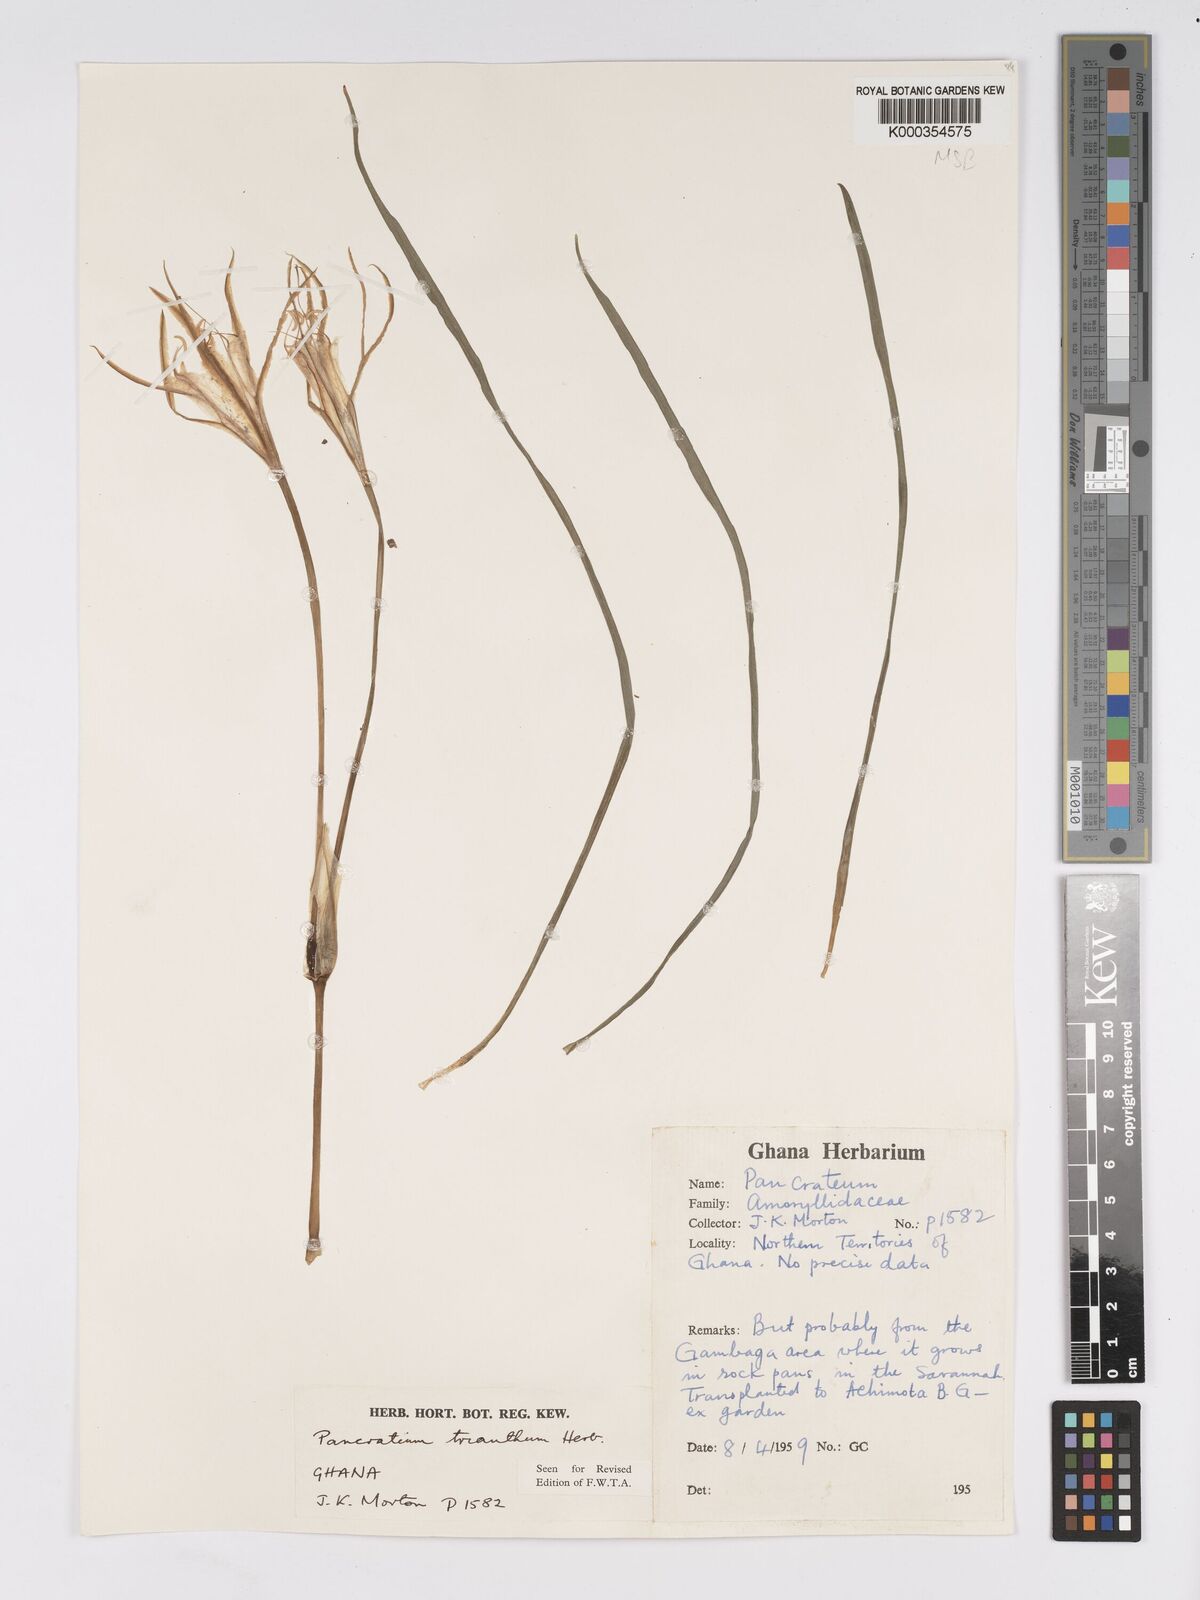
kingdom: Plantae
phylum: Tracheophyta
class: Liliopsida
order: Asparagales
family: Amaryllidaceae
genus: Pancratium
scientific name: Pancratium trianthum
